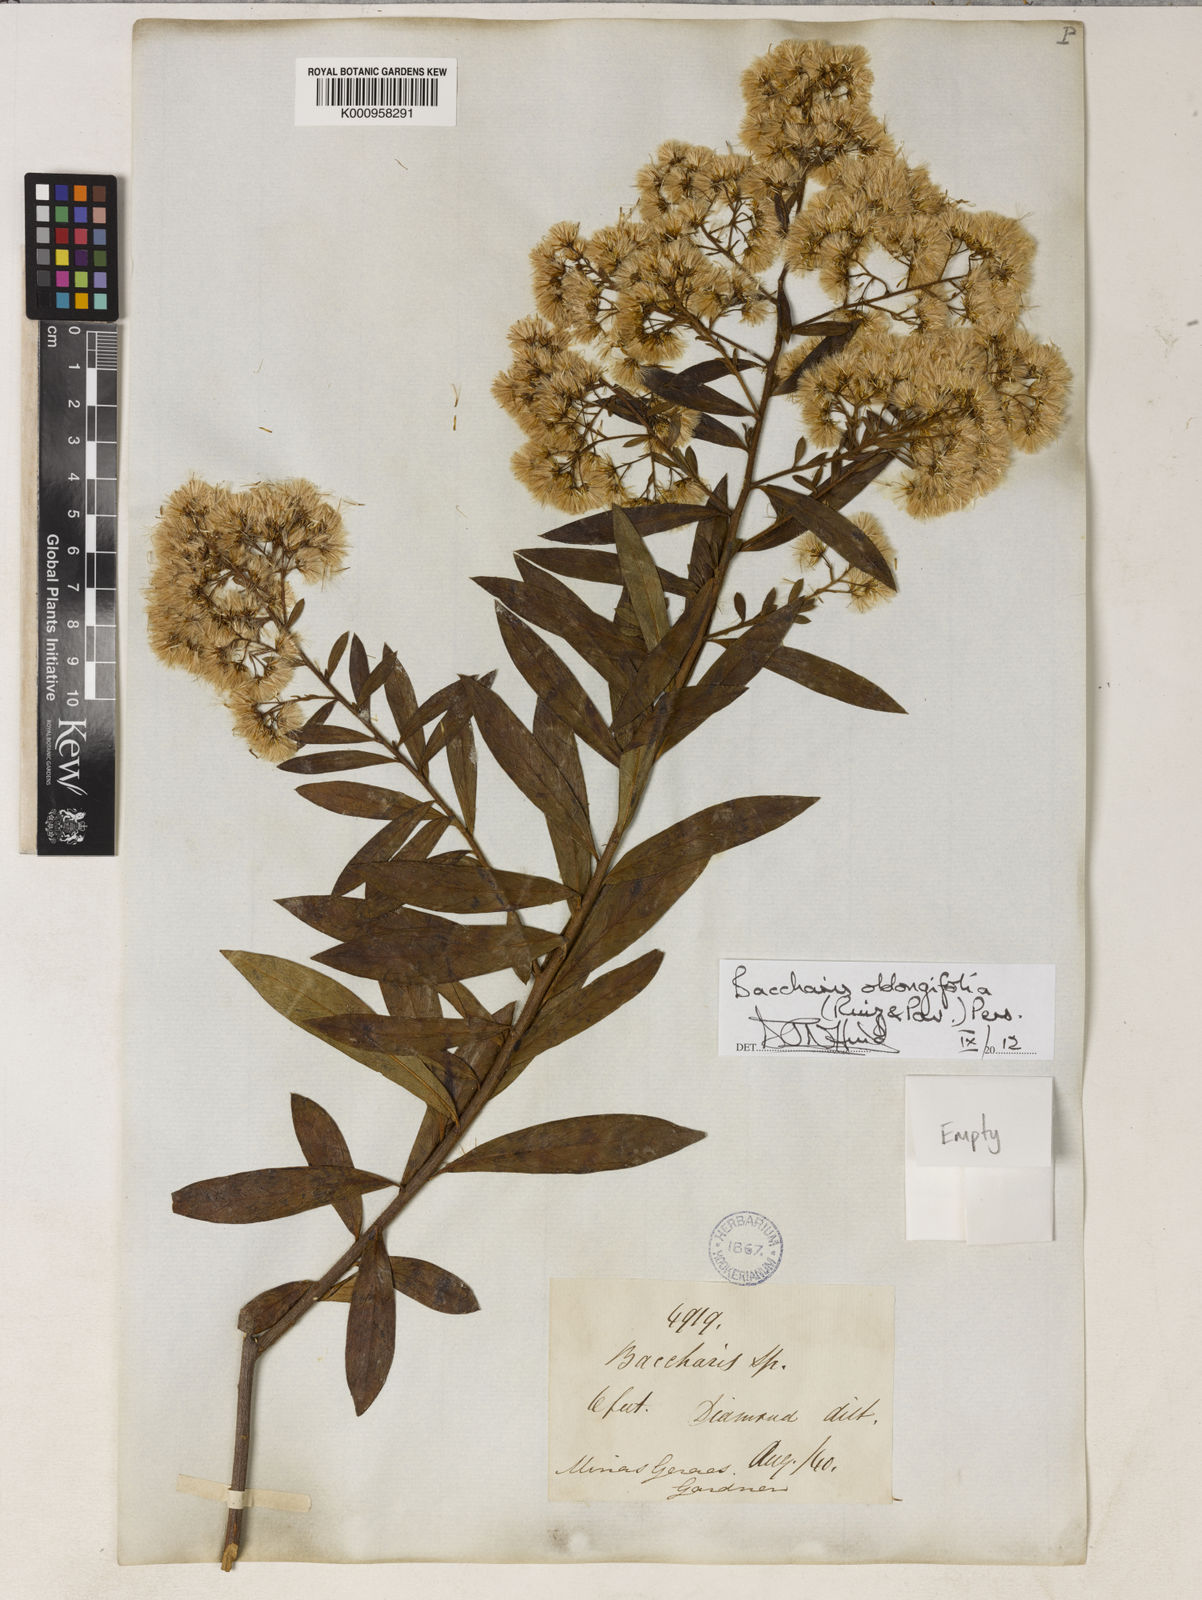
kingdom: Plantae
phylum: Tracheophyta
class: Magnoliopsida
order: Asterales
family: Asteraceae
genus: Baccharis
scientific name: Baccharis oblongifolia
